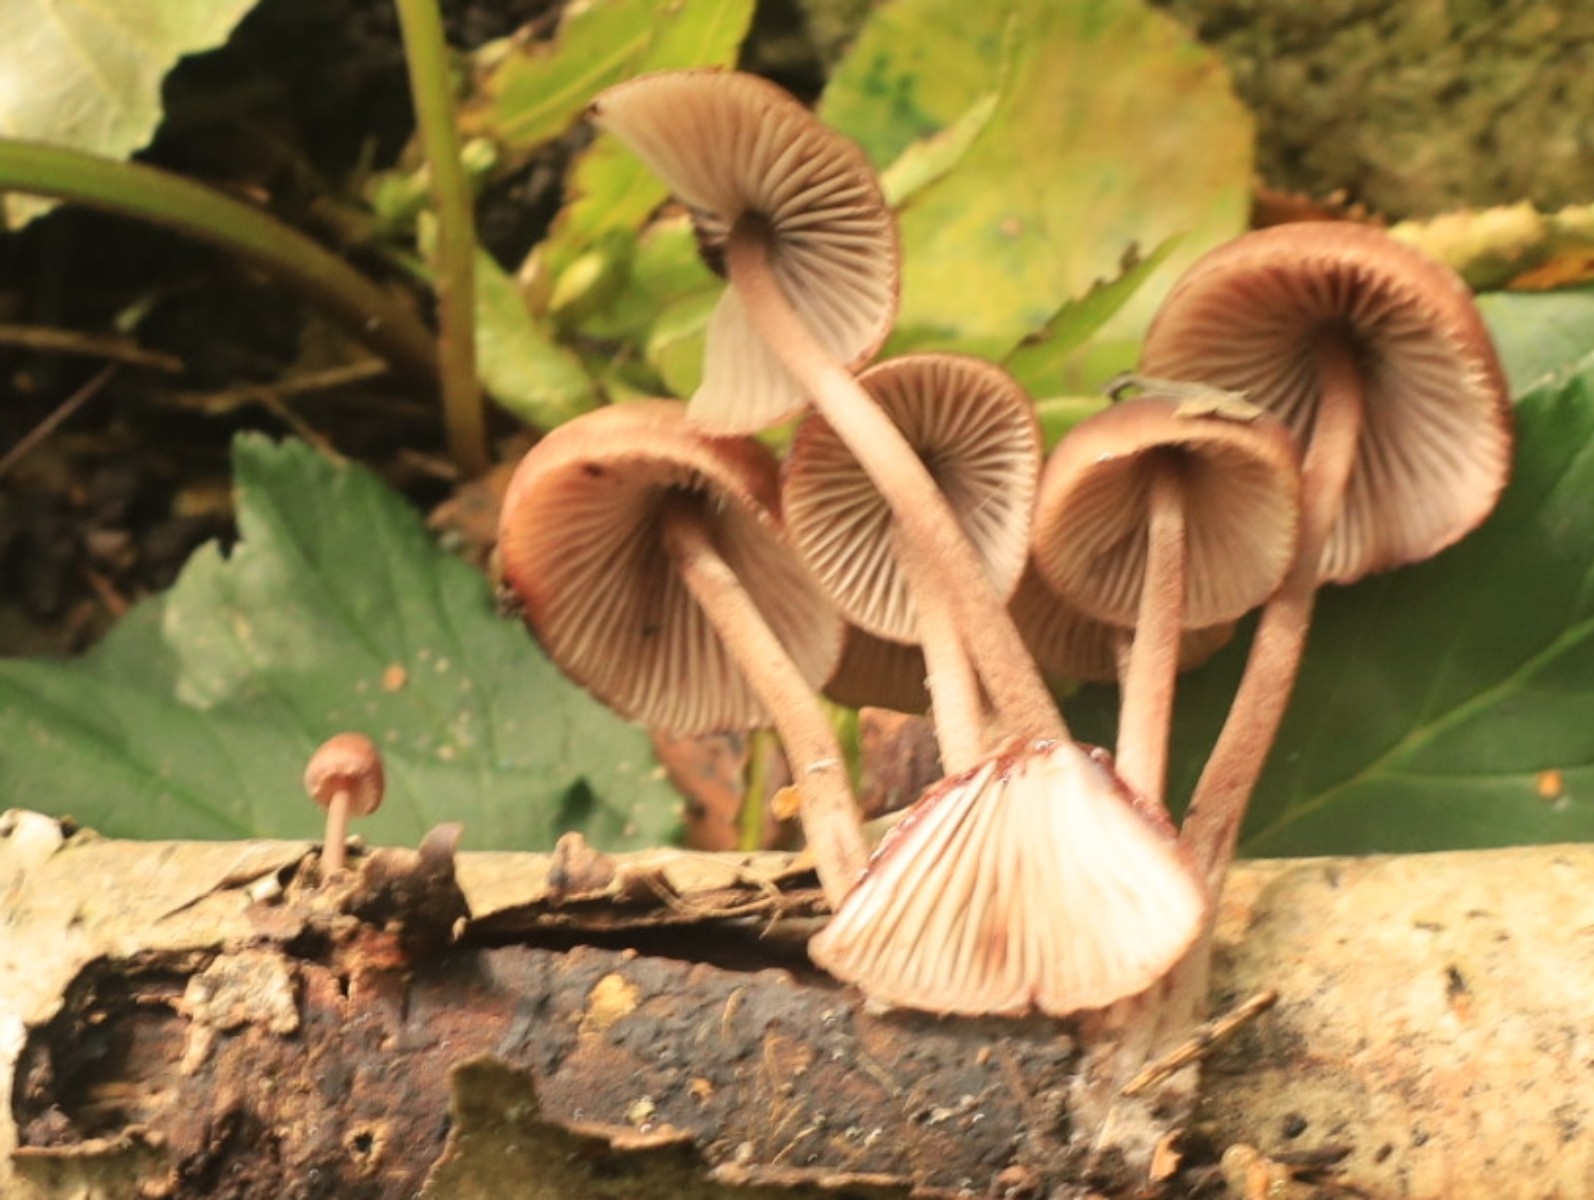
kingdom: Fungi
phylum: Basidiomycota
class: Agaricomycetes
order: Agaricales
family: Mycenaceae
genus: Mycena
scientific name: Mycena haematopus
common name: blødende huesvamp
